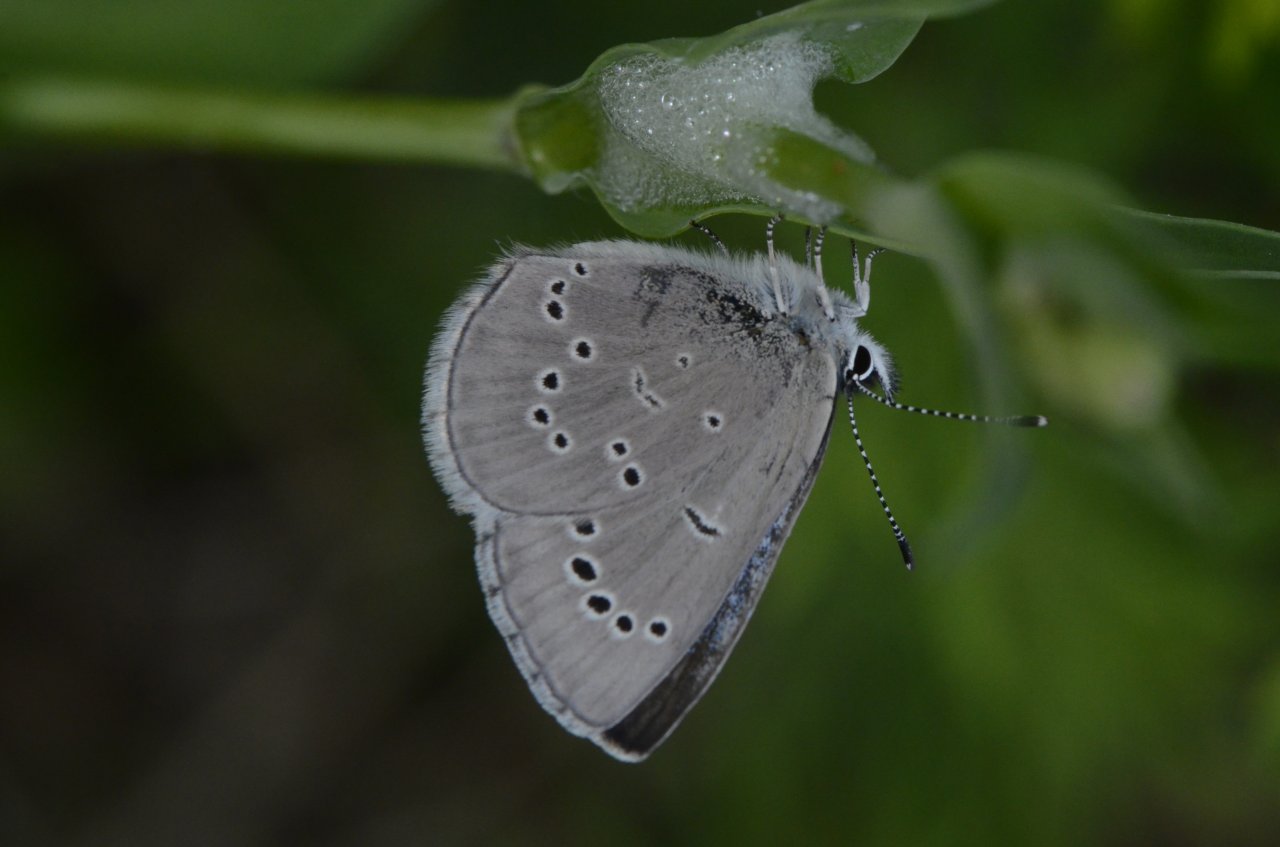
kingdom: Animalia
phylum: Arthropoda
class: Insecta
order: Lepidoptera
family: Lycaenidae
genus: Glaucopsyche
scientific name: Glaucopsyche lygdamus
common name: Silvery Blue
